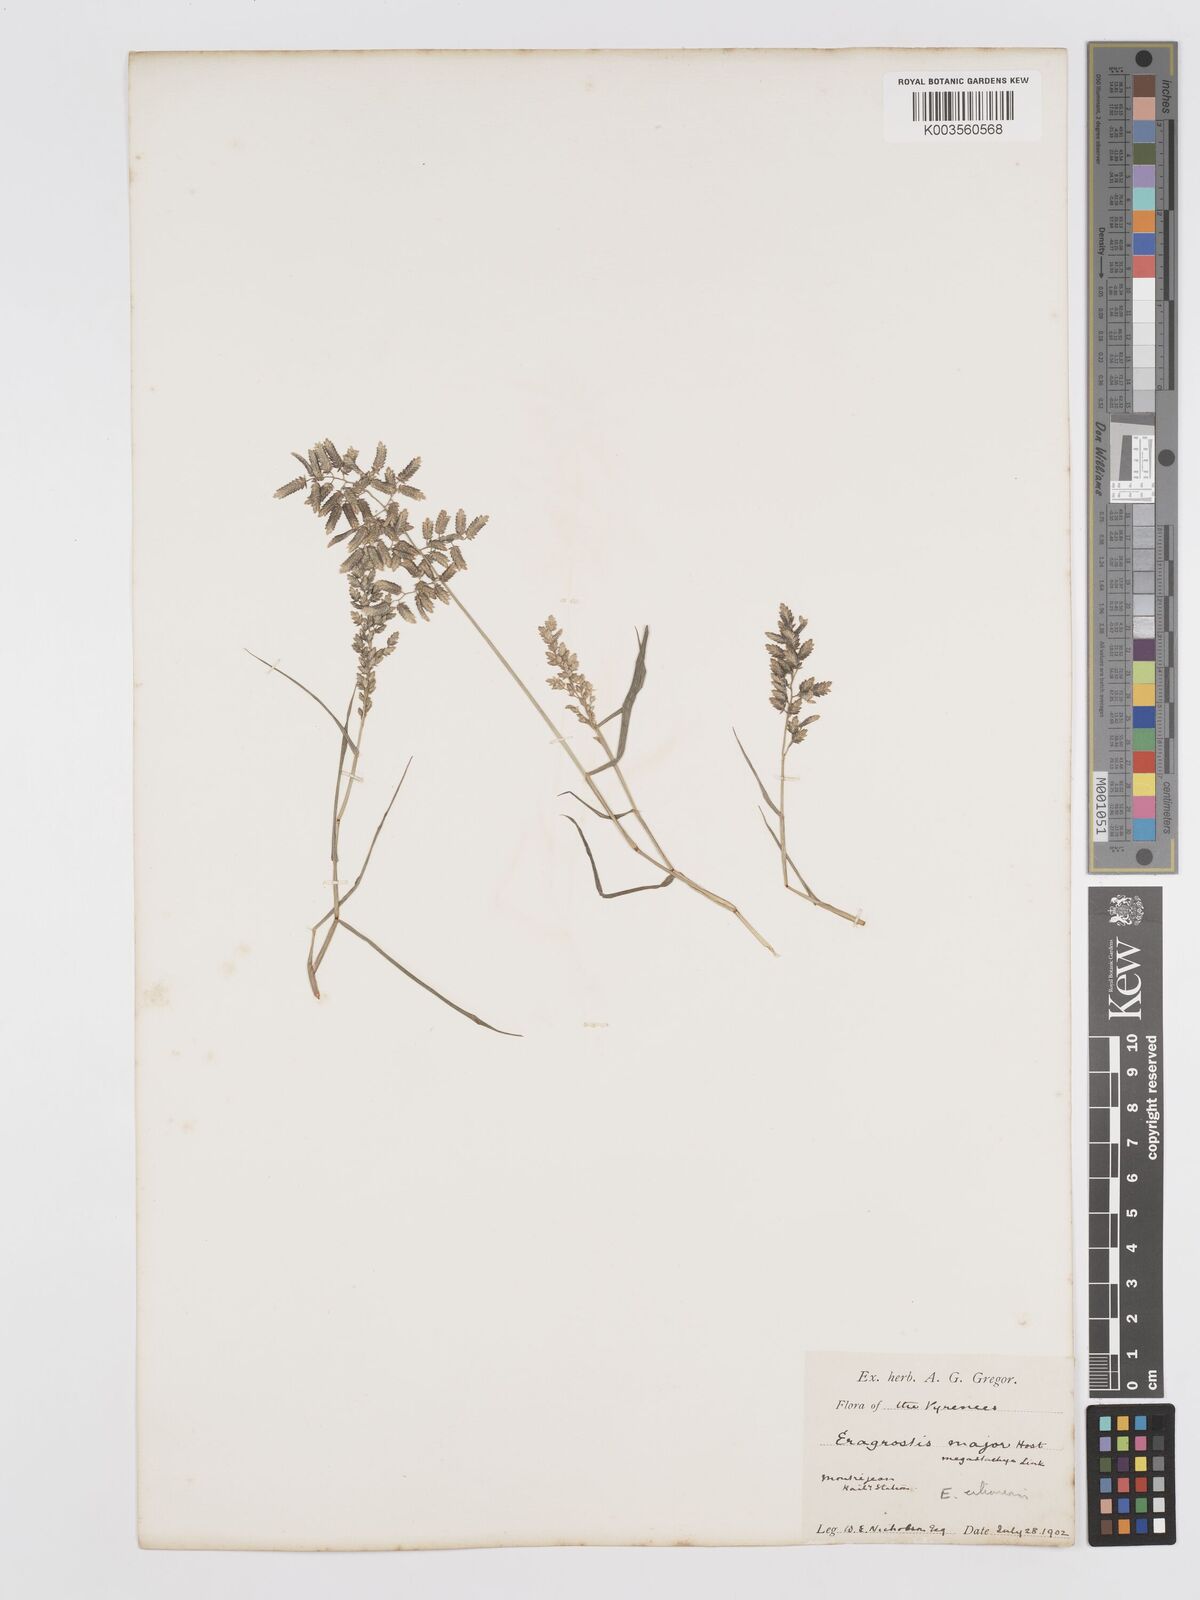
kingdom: Plantae
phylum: Tracheophyta
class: Liliopsida
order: Poales
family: Poaceae
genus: Eragrostis
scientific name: Eragrostis cilianensis
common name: Stinkgrass
